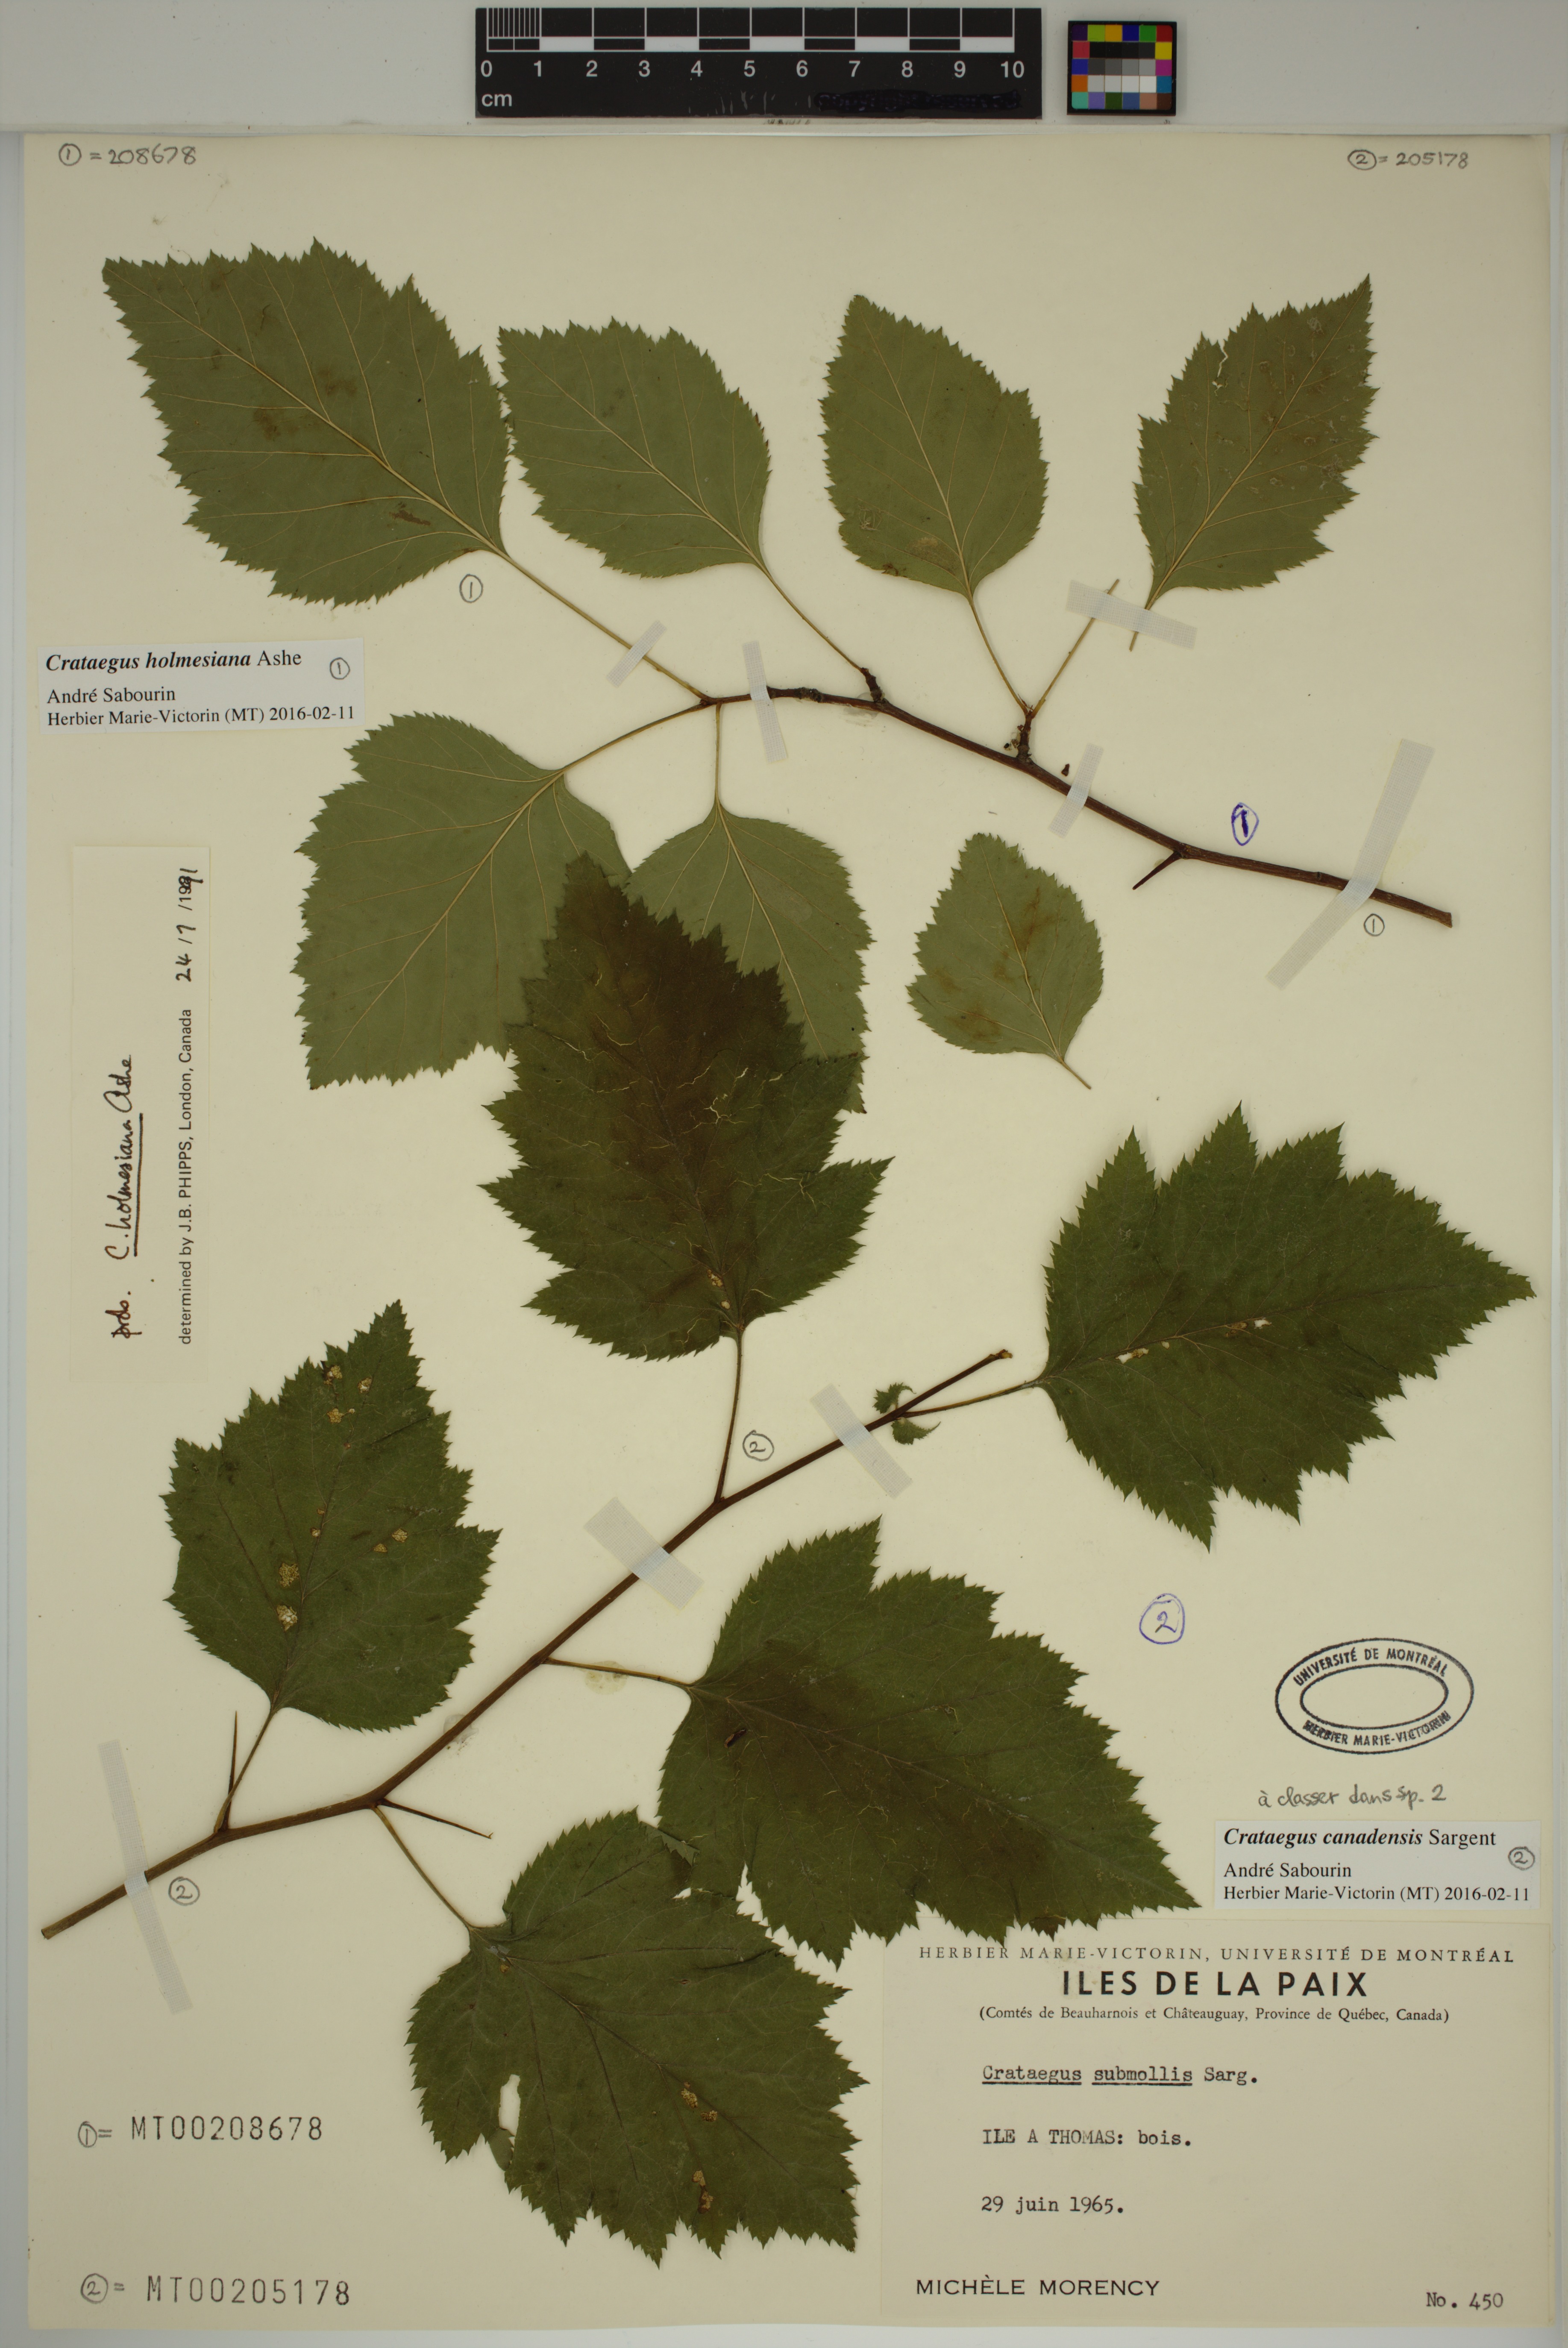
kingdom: Plantae
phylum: Tracheophyta
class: Magnoliopsida
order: Rosales
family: Rosaceae
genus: Crataegus
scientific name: Crataegus submollis
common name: Hairy cockspurthorn
